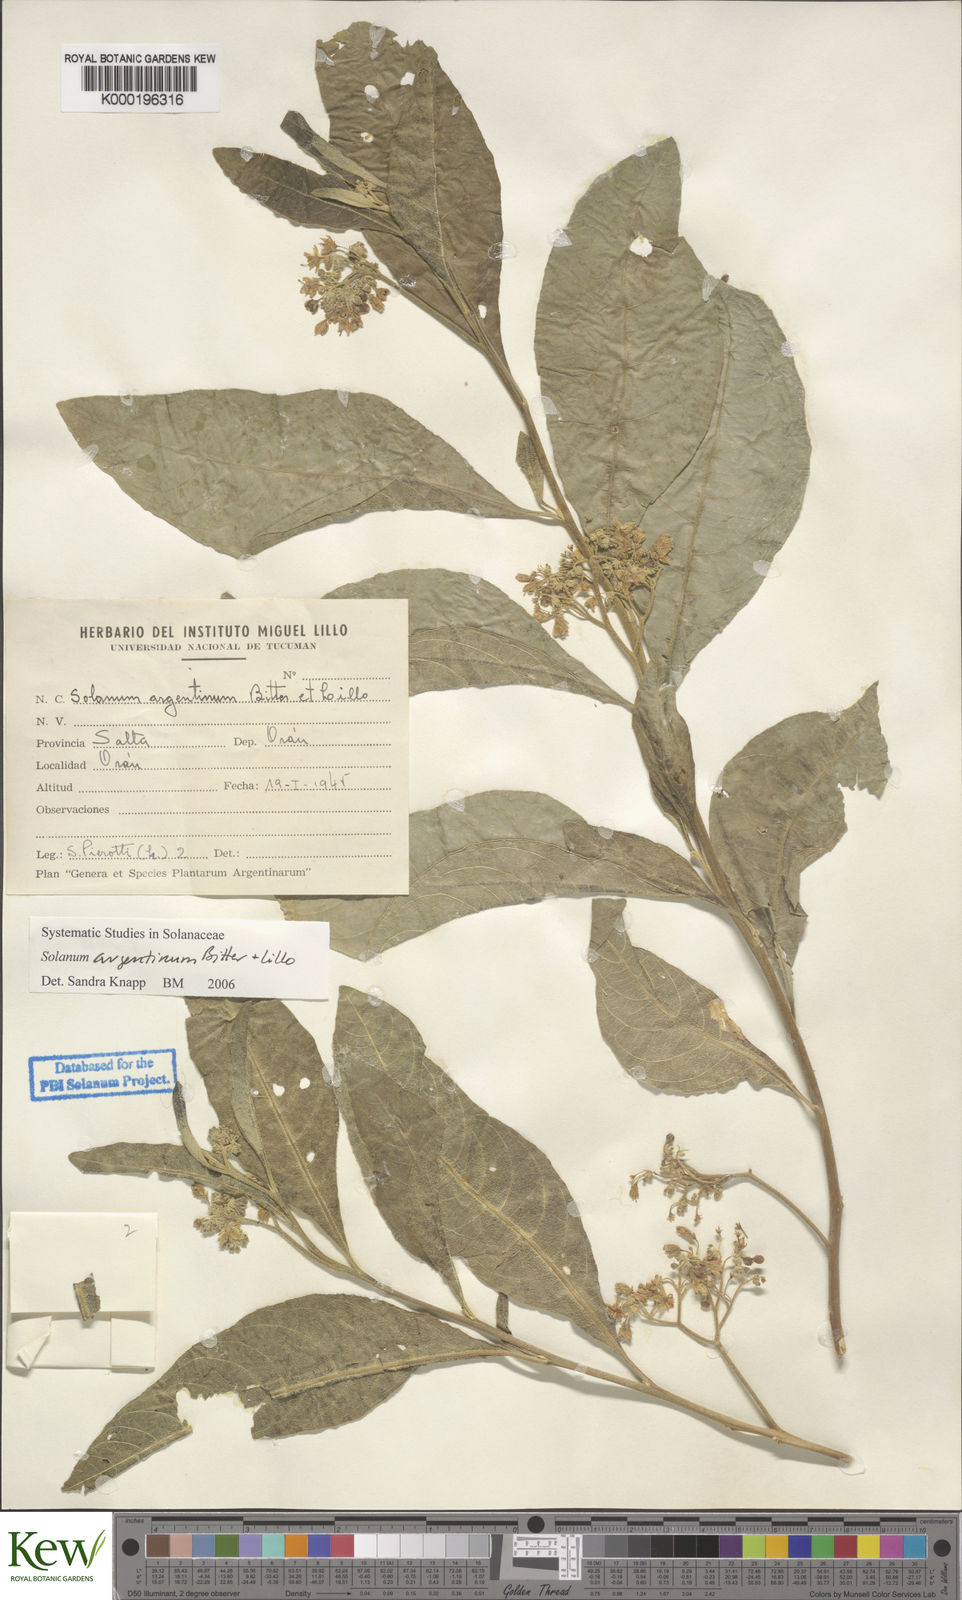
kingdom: Plantae
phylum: Tracheophyta
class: Magnoliopsida
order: Solanales
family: Solanaceae
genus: Solanum
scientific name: Solanum argentinum
